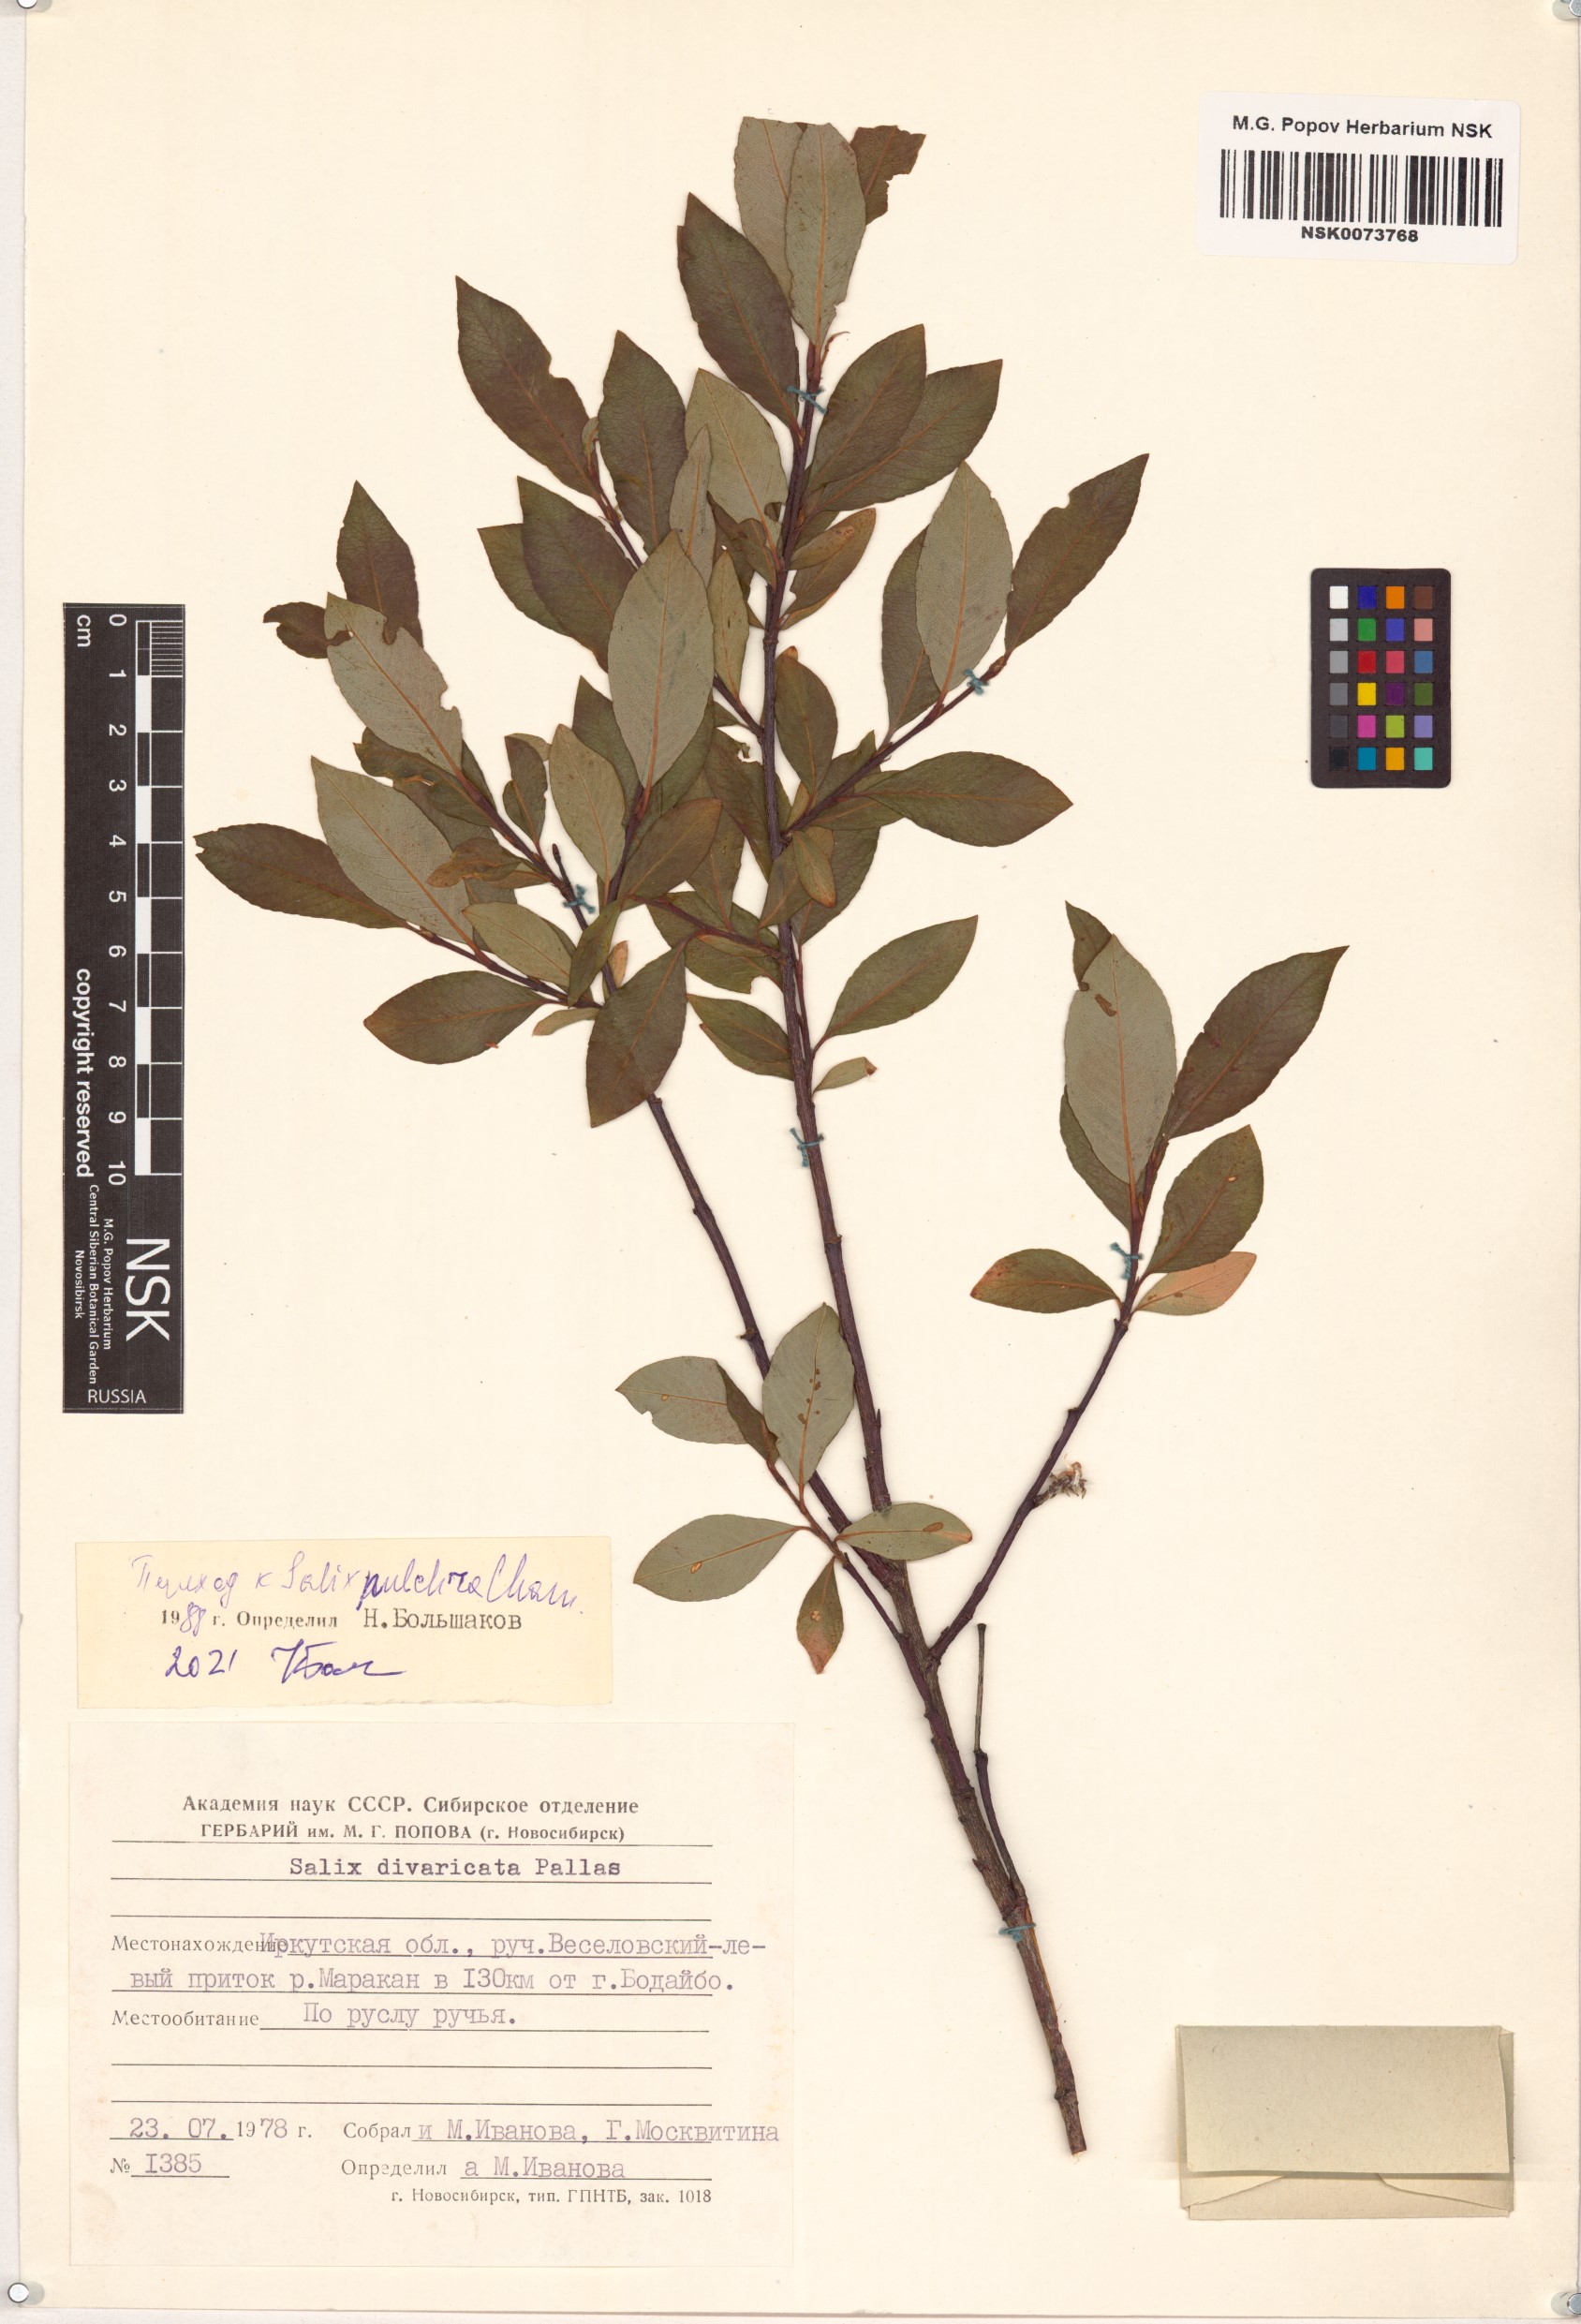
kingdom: Plantae
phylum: Tracheophyta
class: Magnoliopsida
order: Malpighiales
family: Salicaceae
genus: Salix
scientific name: Salix pulchra
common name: Diamond-leaved willow
